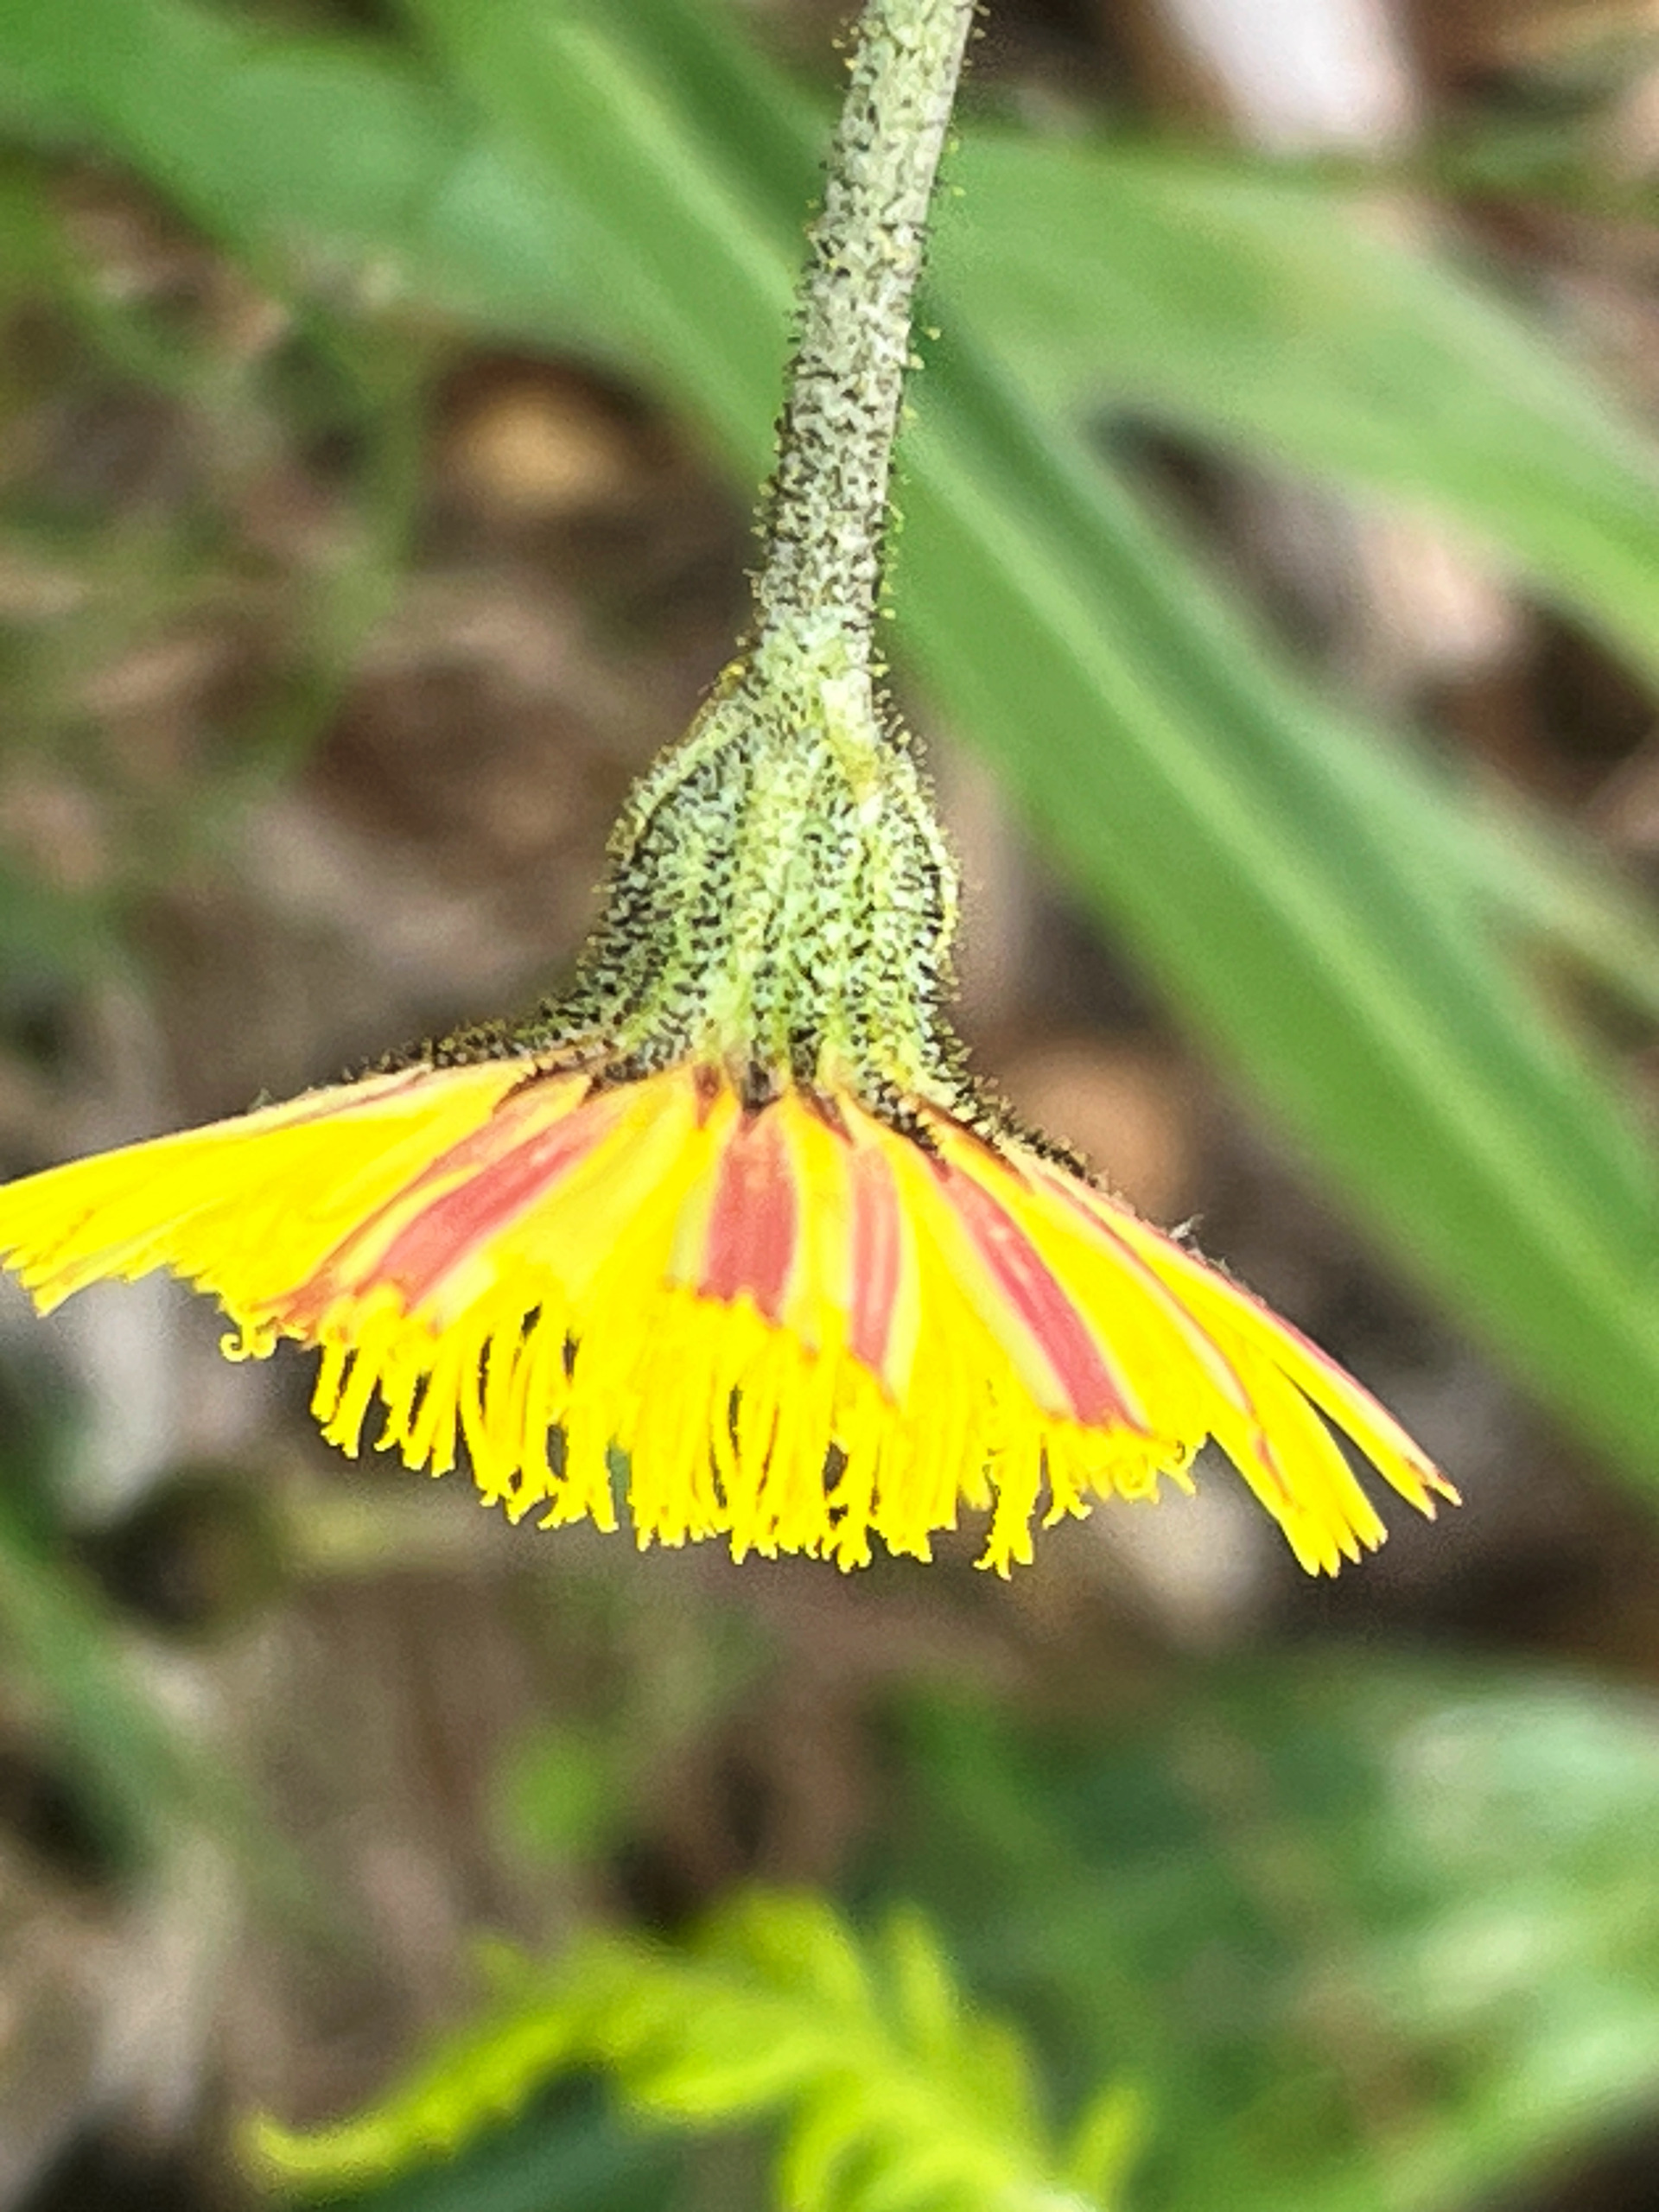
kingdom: Plantae
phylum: Tracheophyta
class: Magnoliopsida
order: Asterales
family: Asteraceae
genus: Pilosella
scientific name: Pilosella officinarum
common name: Håret høgeurt
